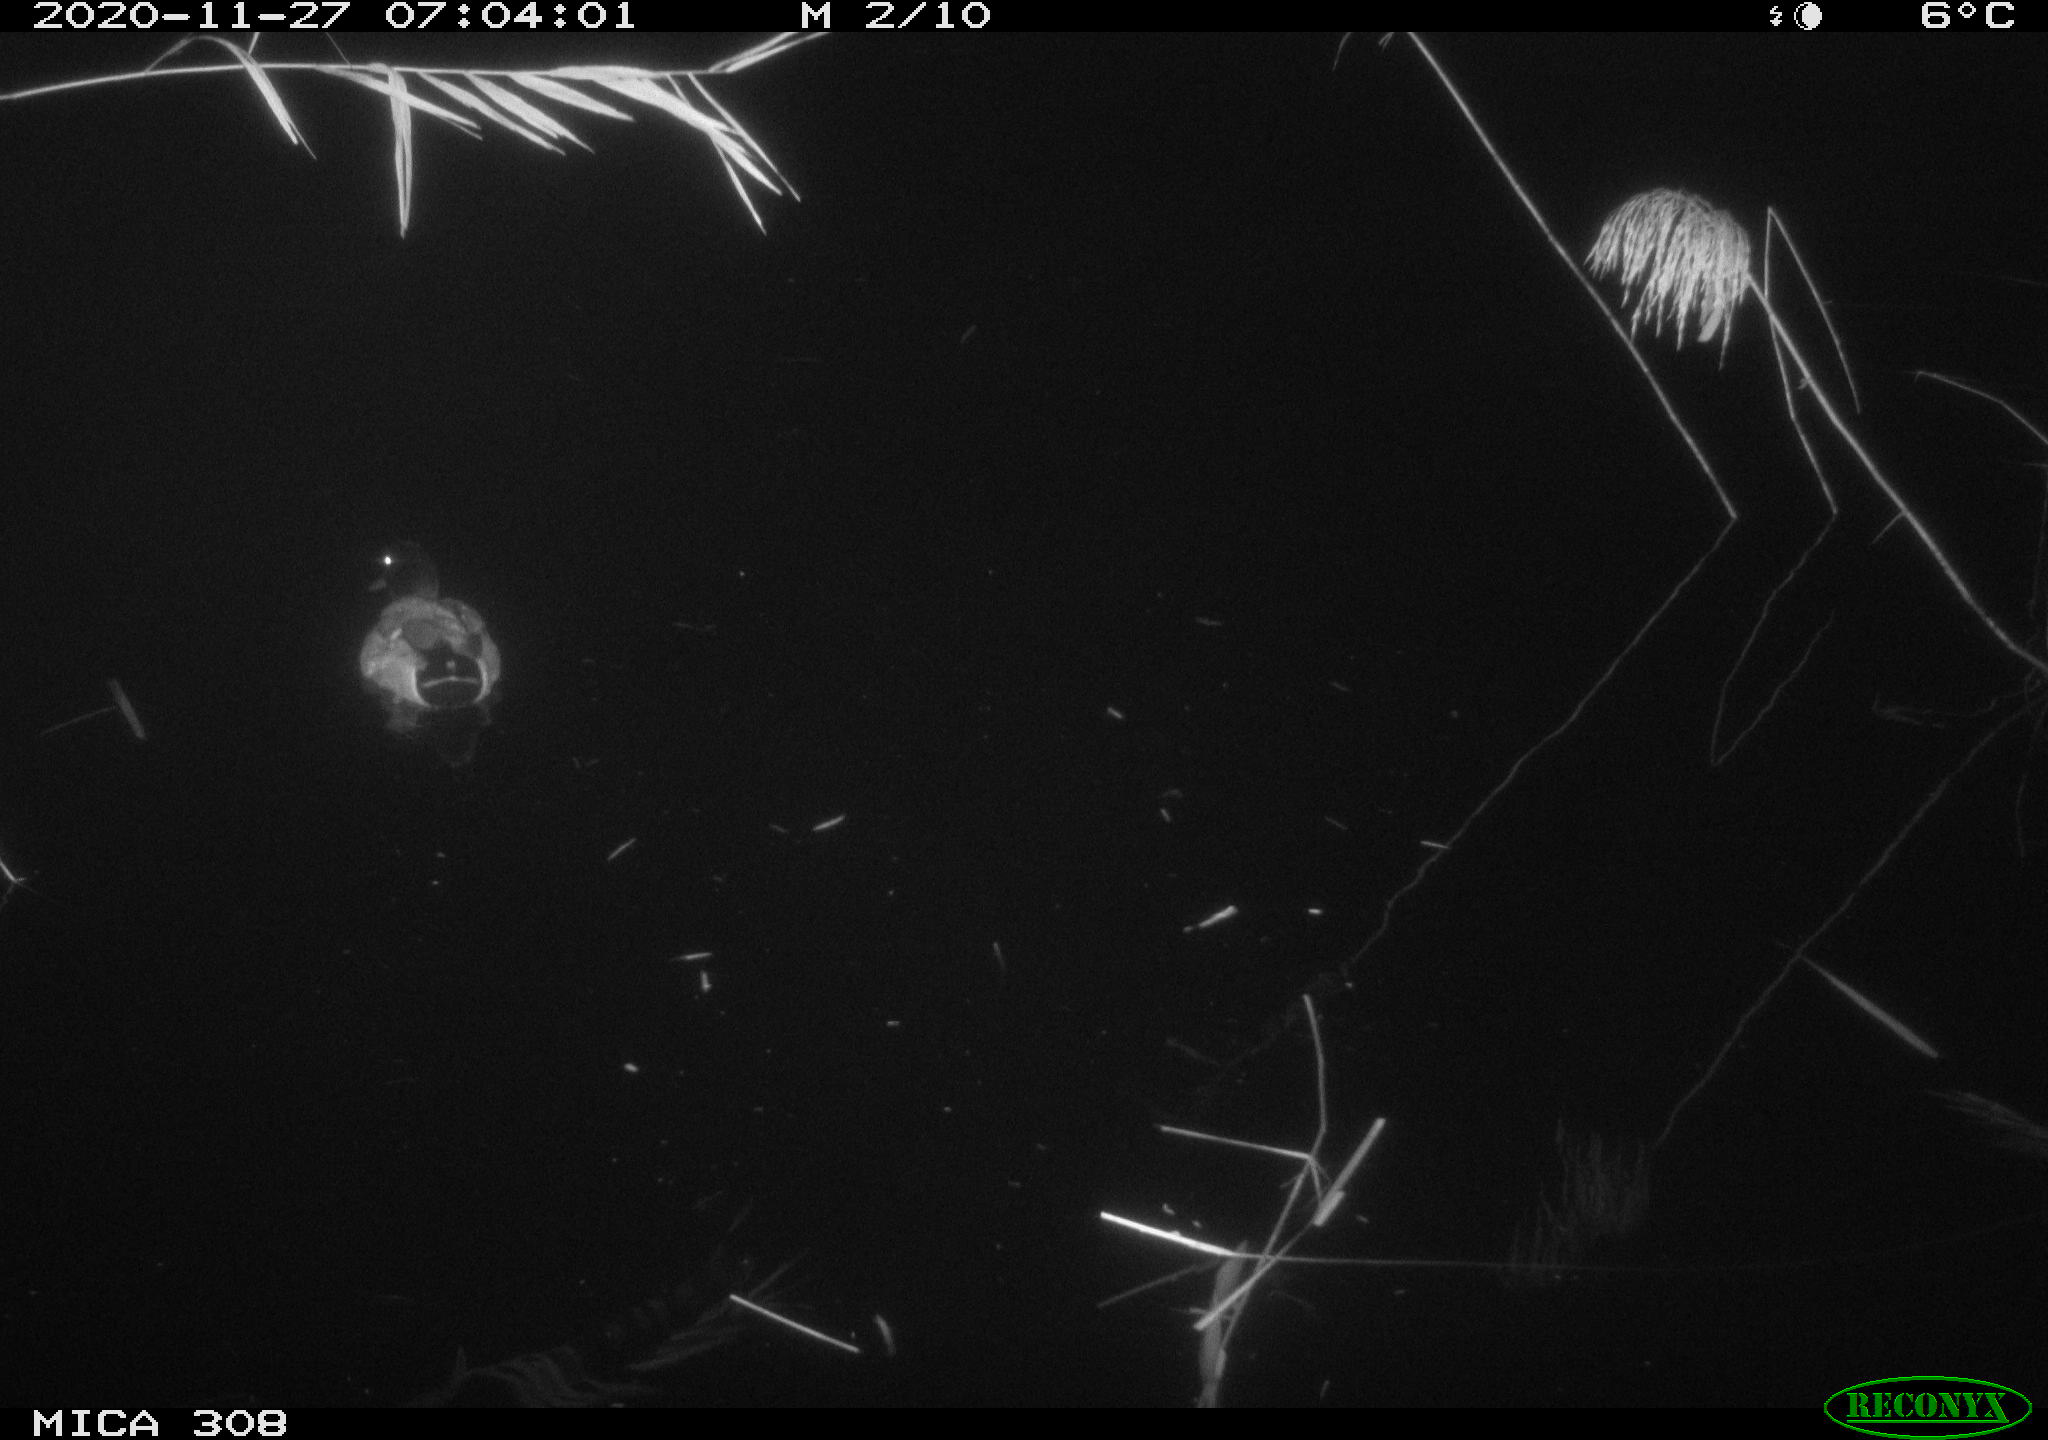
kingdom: Animalia
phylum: Chordata
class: Aves
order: Anseriformes
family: Anatidae
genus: Anas
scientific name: Anas platyrhynchos
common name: Mallard
